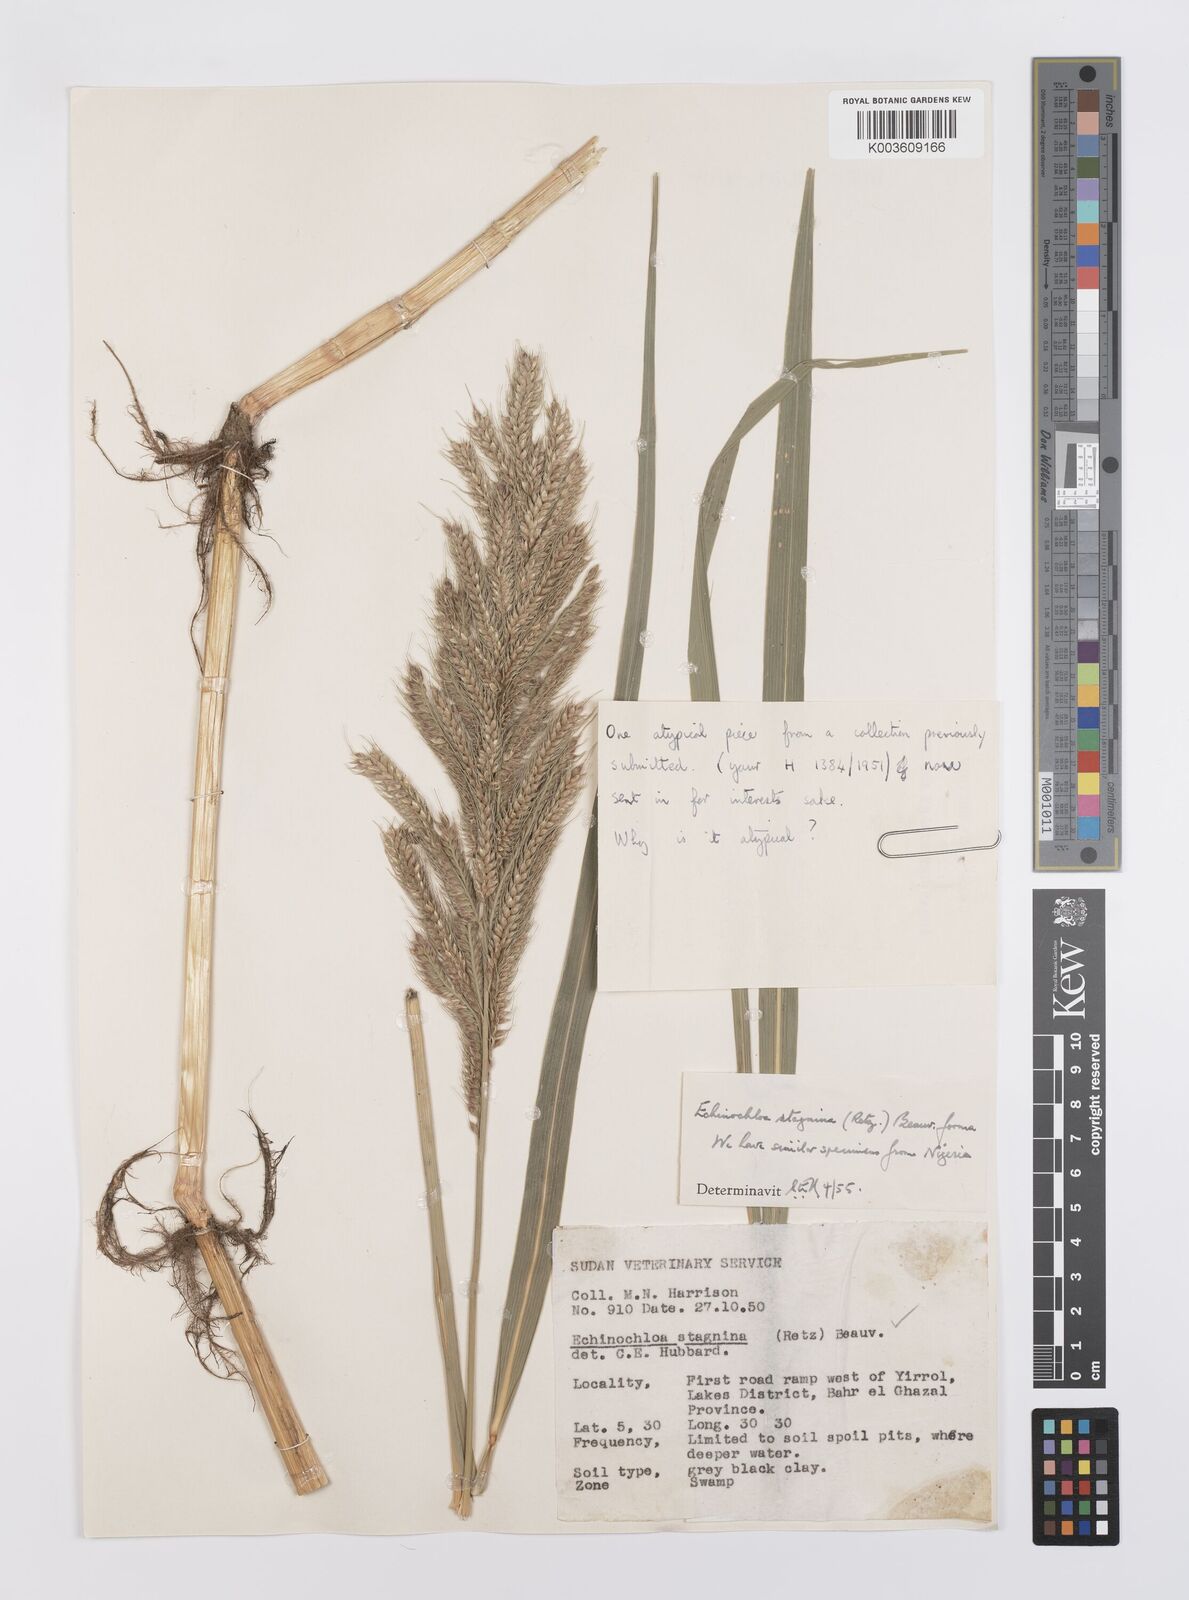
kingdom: Plantae
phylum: Tracheophyta
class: Liliopsida
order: Poales
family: Poaceae
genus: Echinochloa
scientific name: Echinochloa stagnina
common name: Burgu grass
